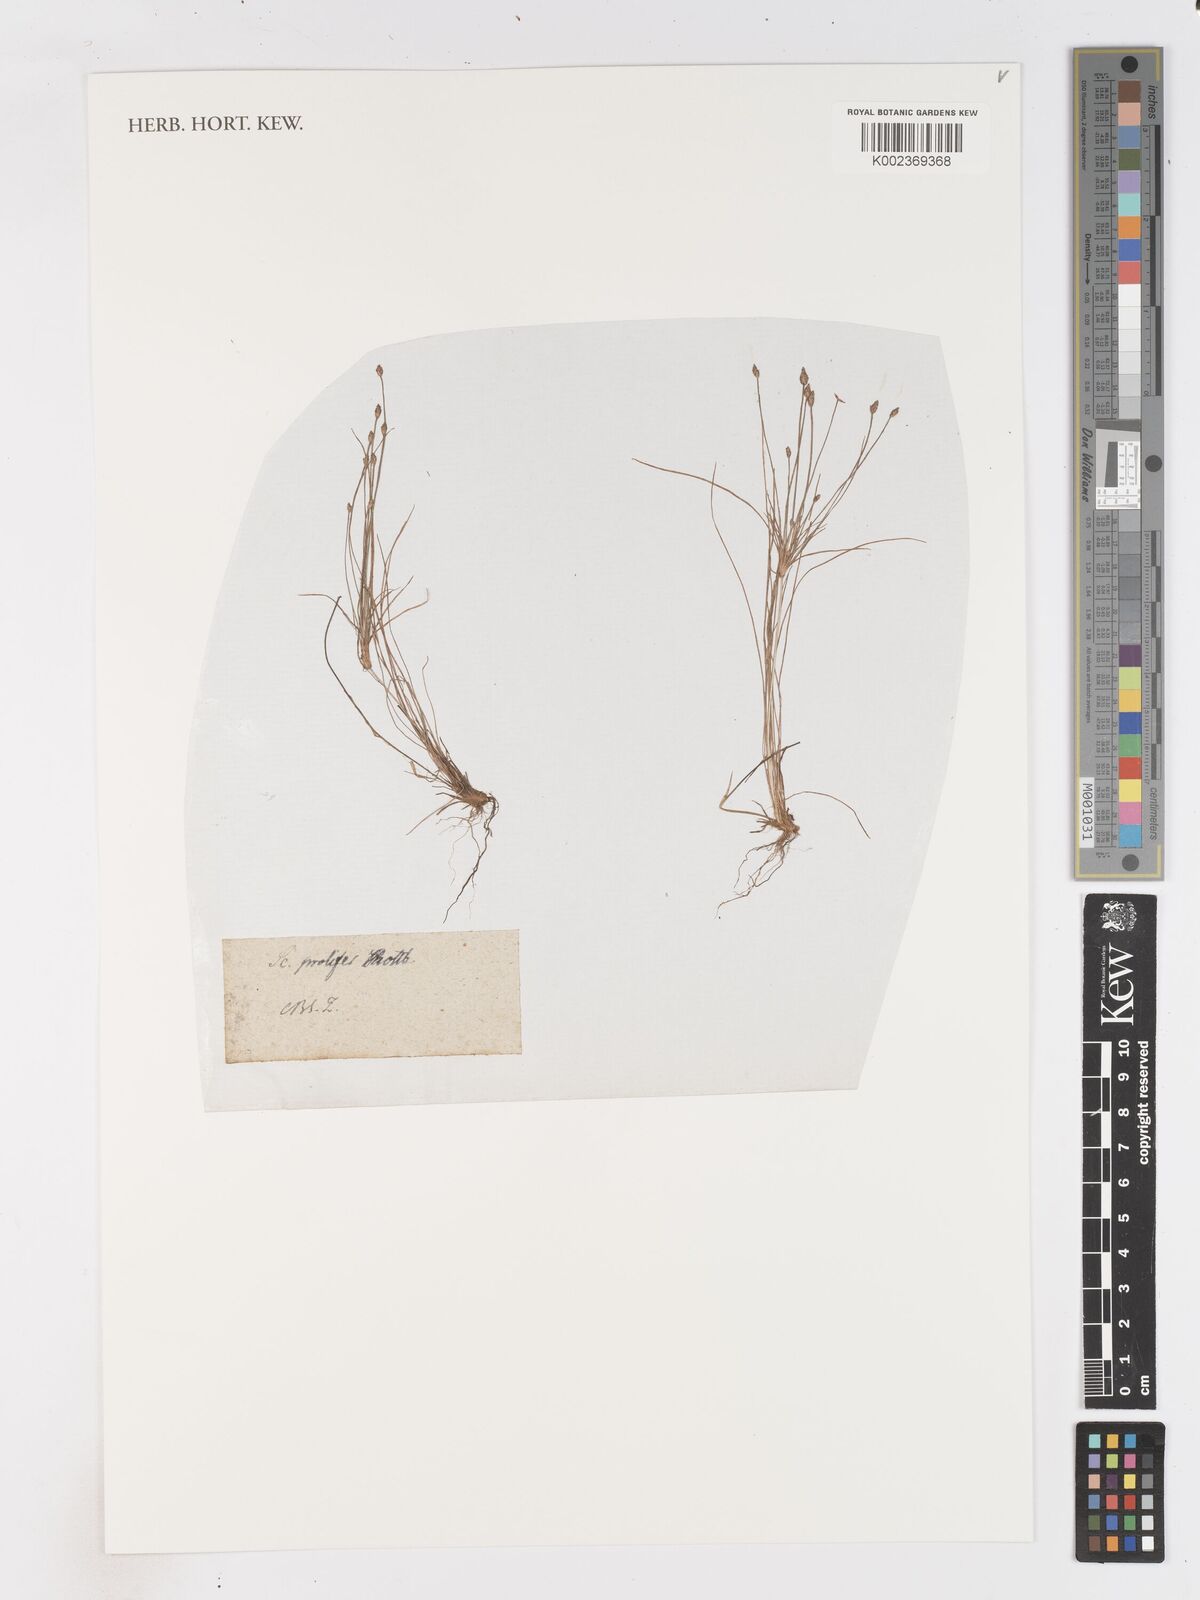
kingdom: Plantae
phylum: Tracheophyta
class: Liliopsida
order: Poales
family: Cyperaceae
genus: Isolepis
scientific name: Isolepis prolifera
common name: Proliferating bulrush
